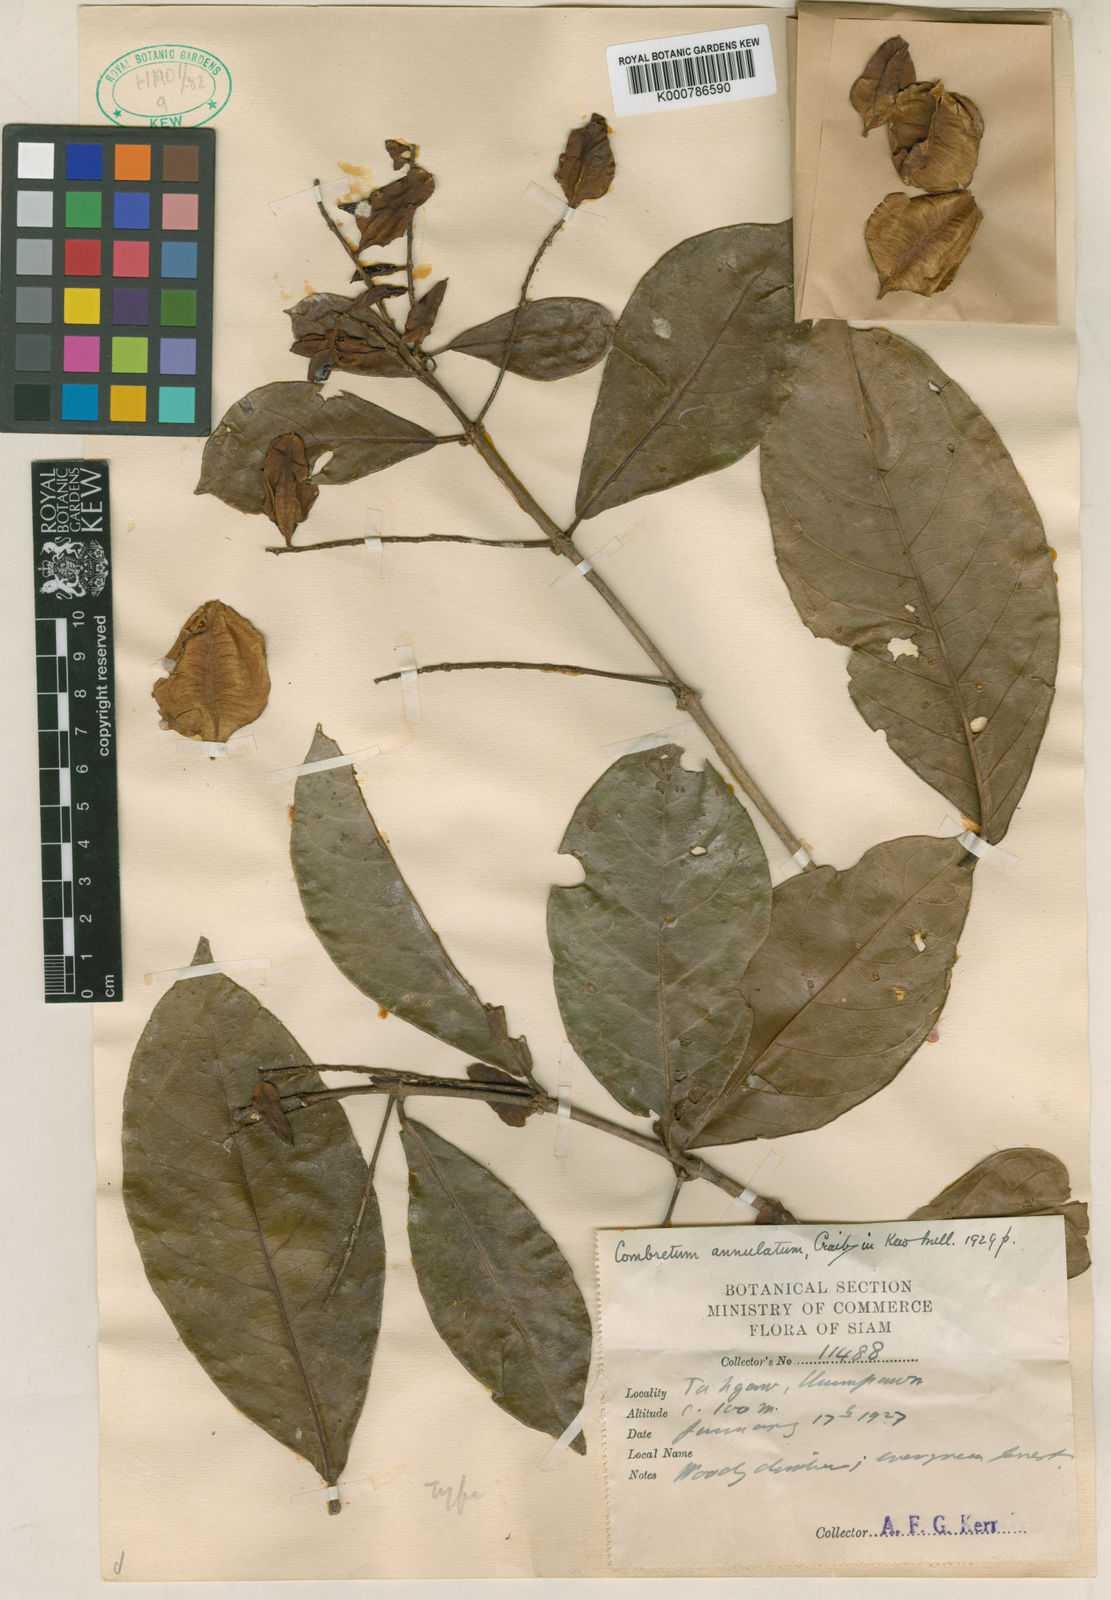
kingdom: Plantae
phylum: Tracheophyta
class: Magnoliopsida
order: Myrtales
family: Combretaceae
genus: Combretum
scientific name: Combretum chinense
